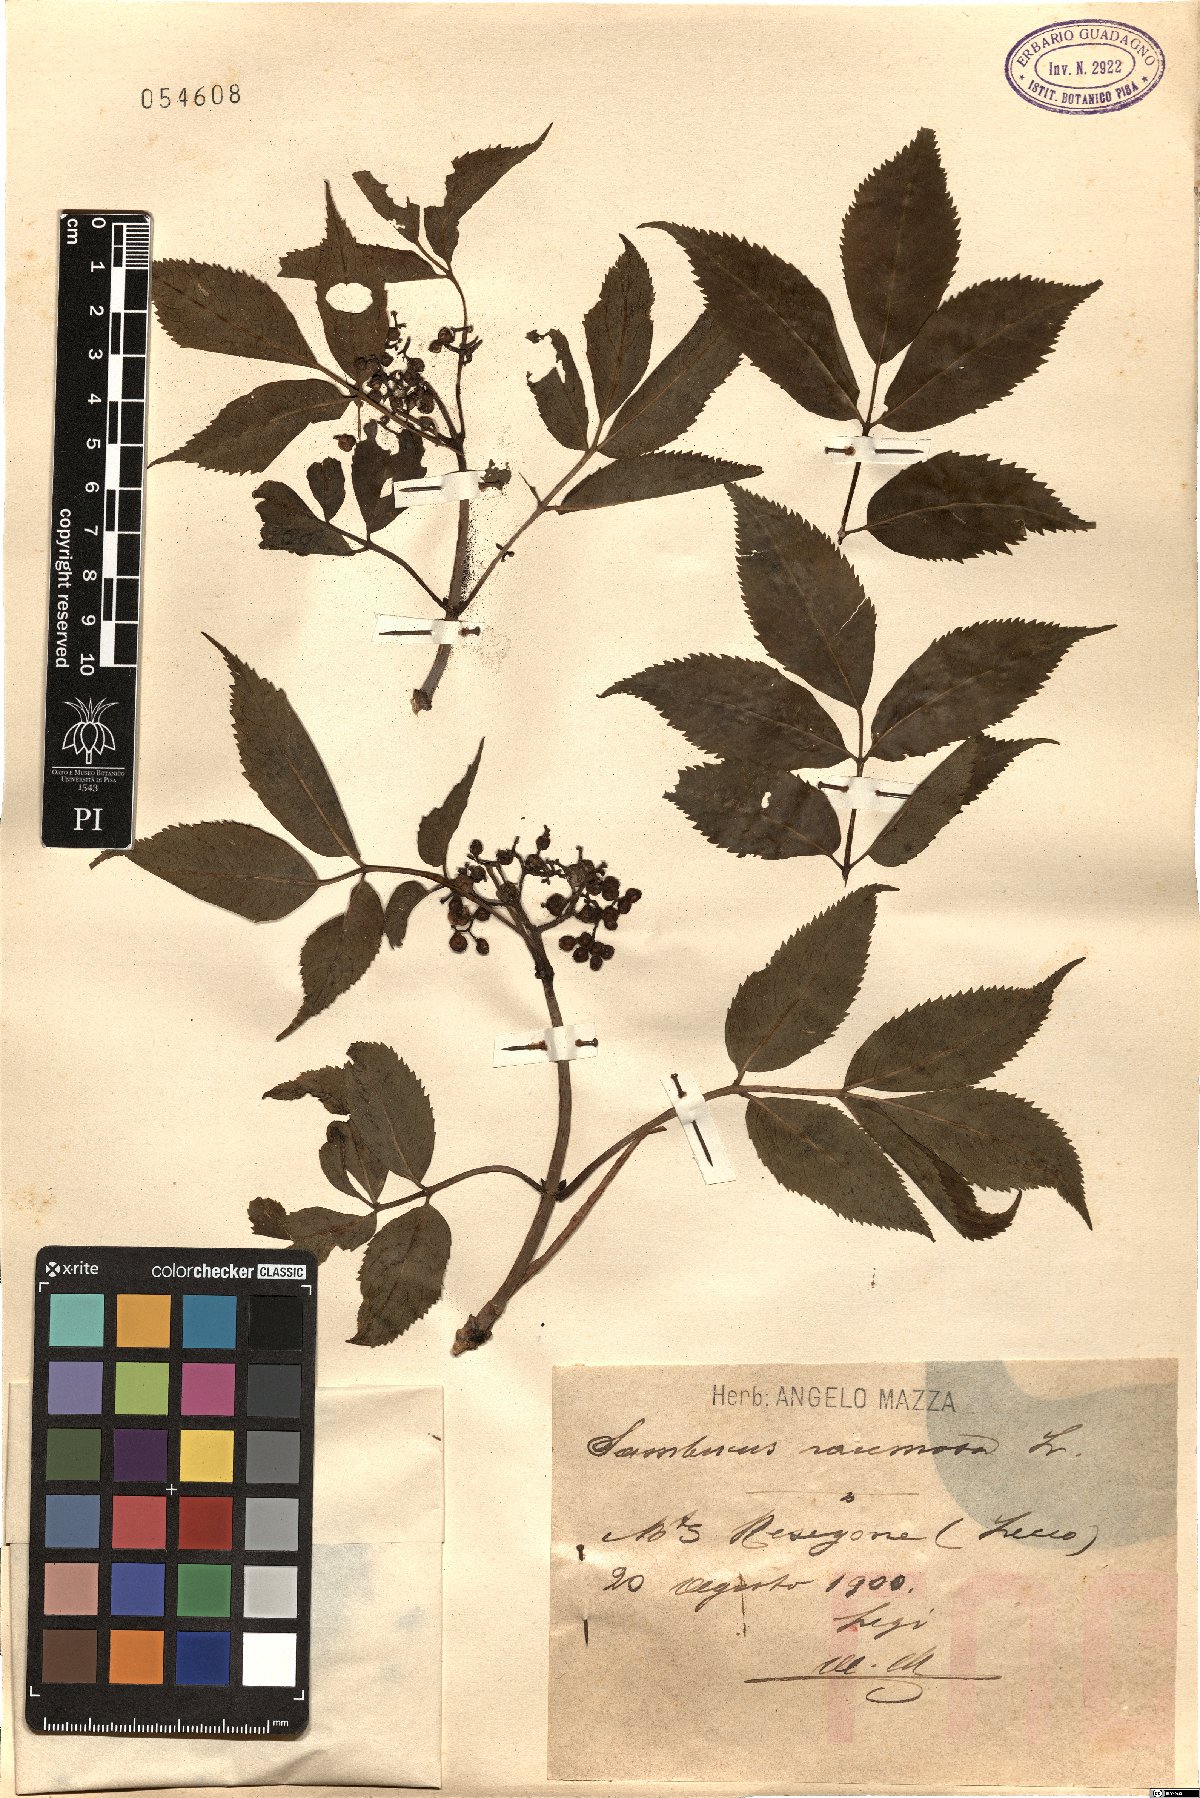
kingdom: Plantae
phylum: Tracheophyta
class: Magnoliopsida
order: Dipsacales
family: Viburnaceae
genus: Sambucus
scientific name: Sambucus racemosa
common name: Red-berried elder
